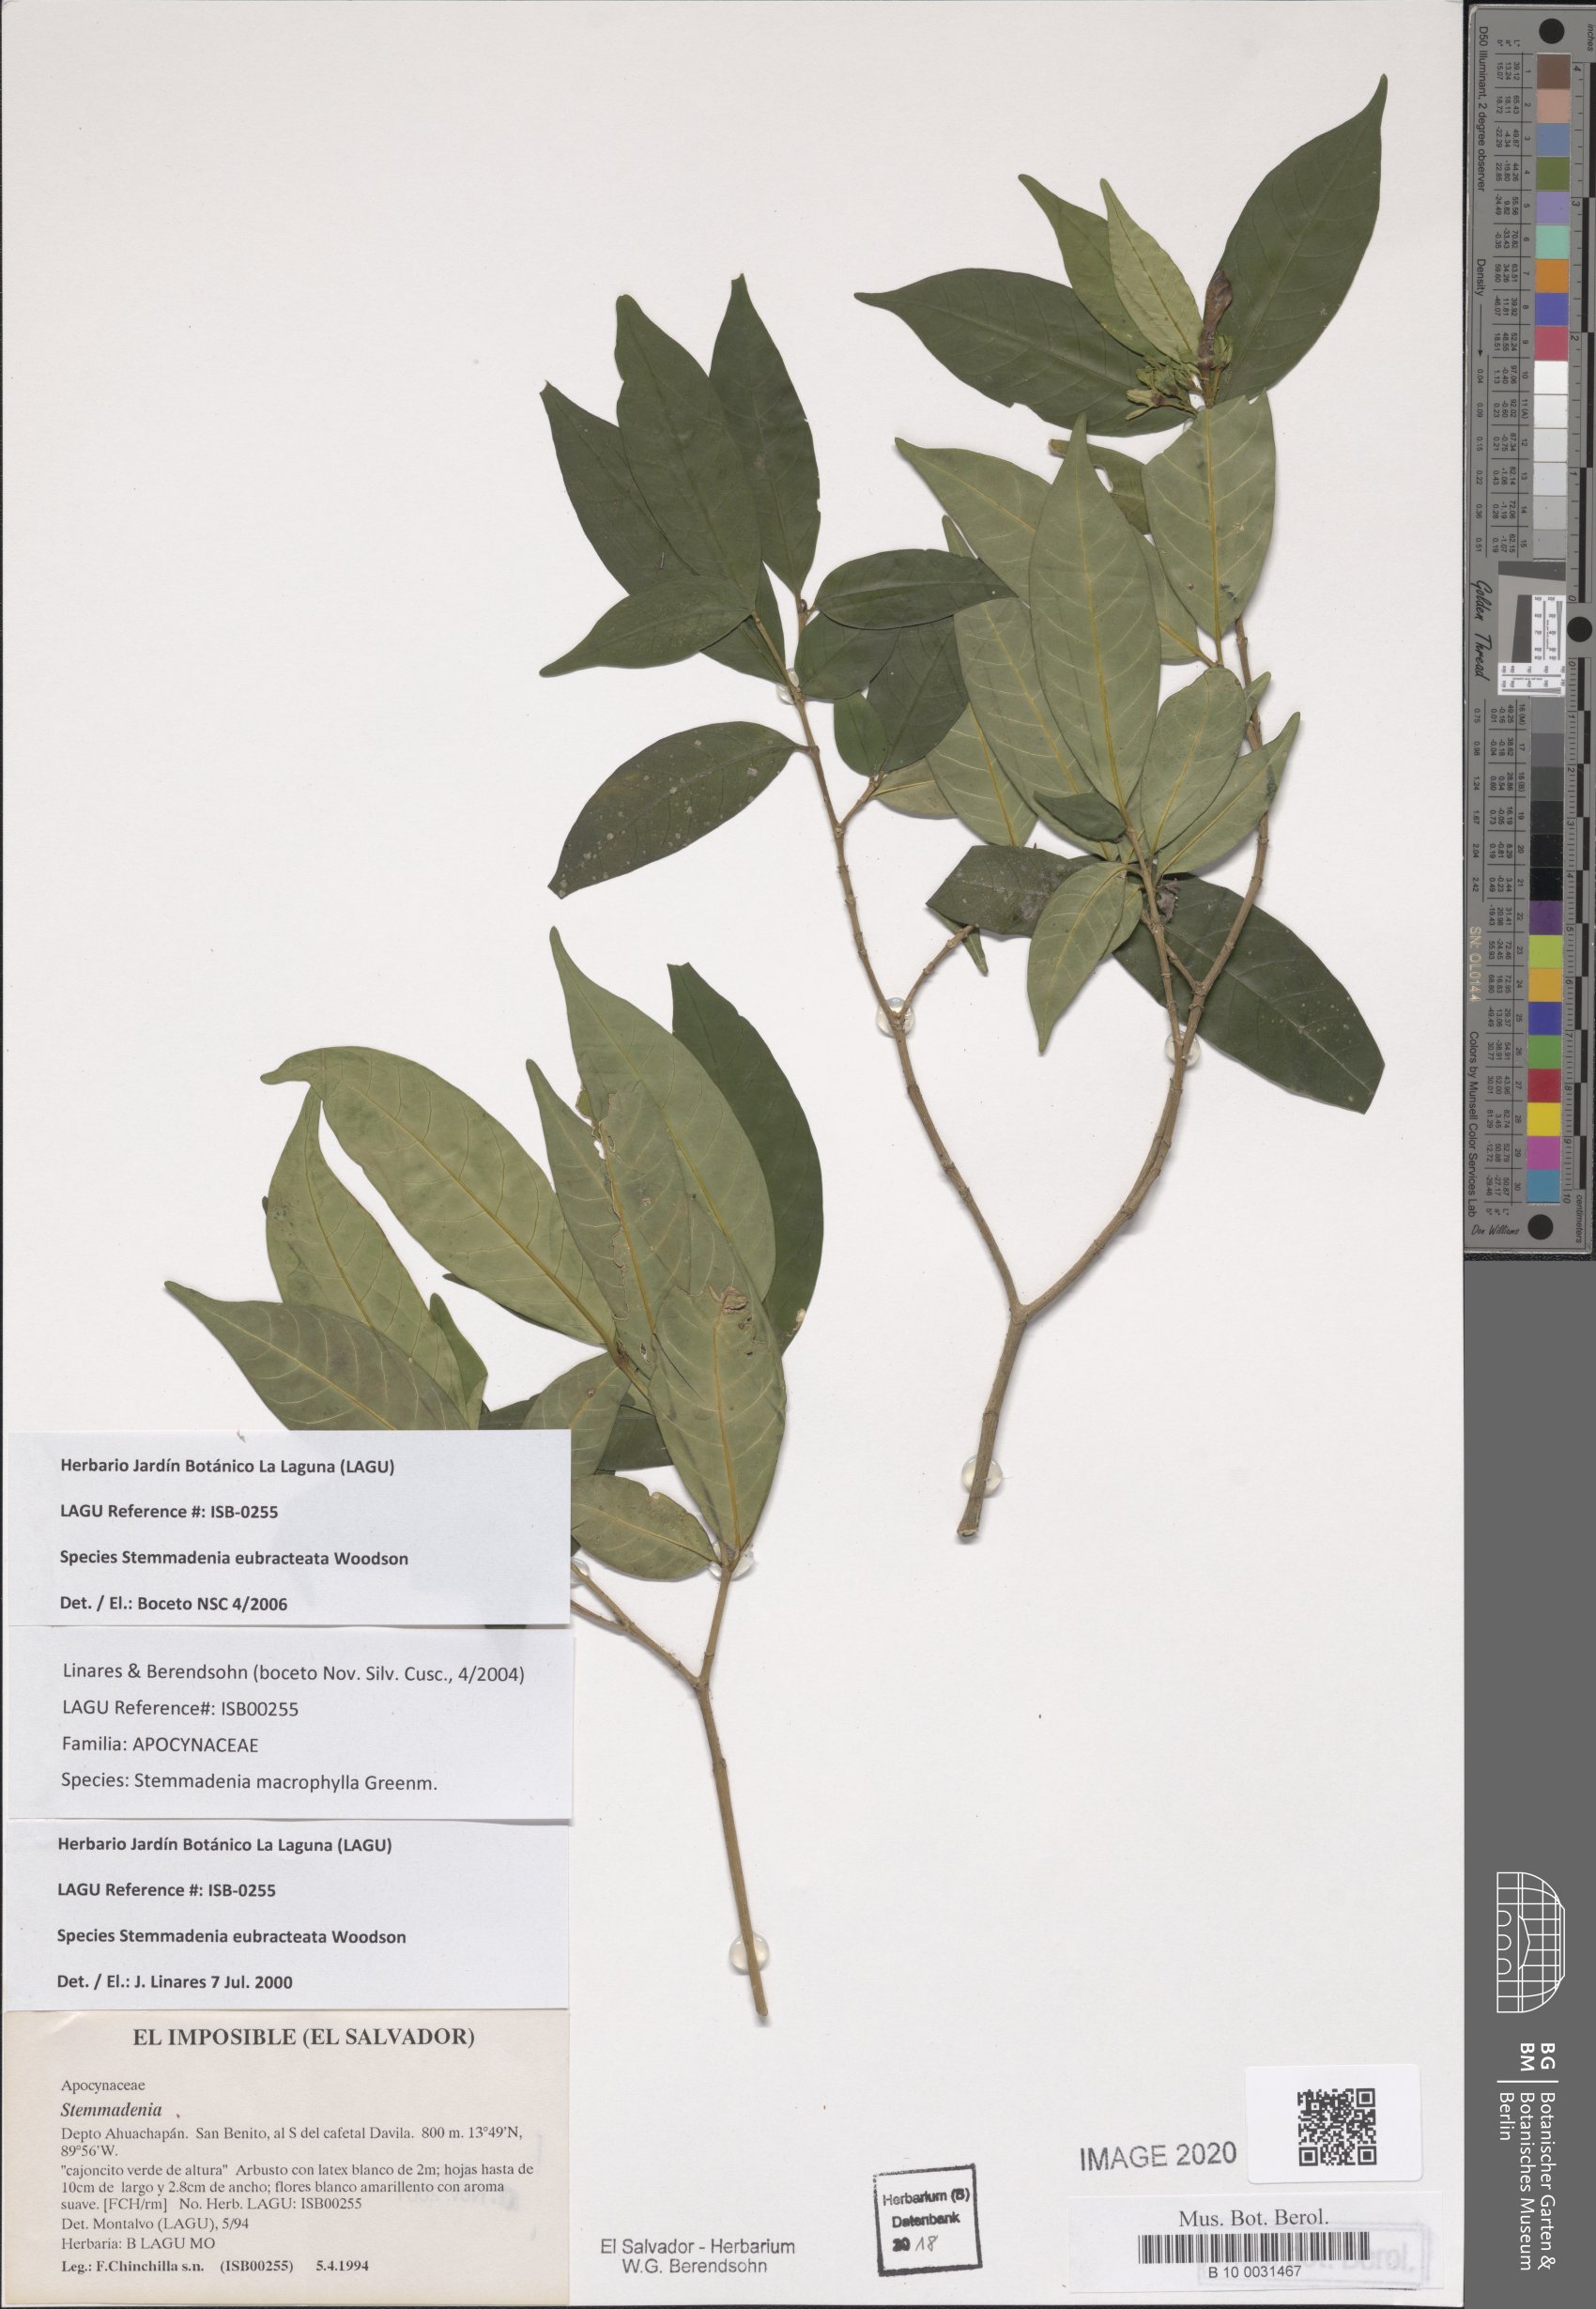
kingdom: Plantae
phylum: Tracheophyta
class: Magnoliopsida
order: Gentianales
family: Apocynaceae
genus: Tabernaemontana
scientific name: Tabernaemontana eubracteata
